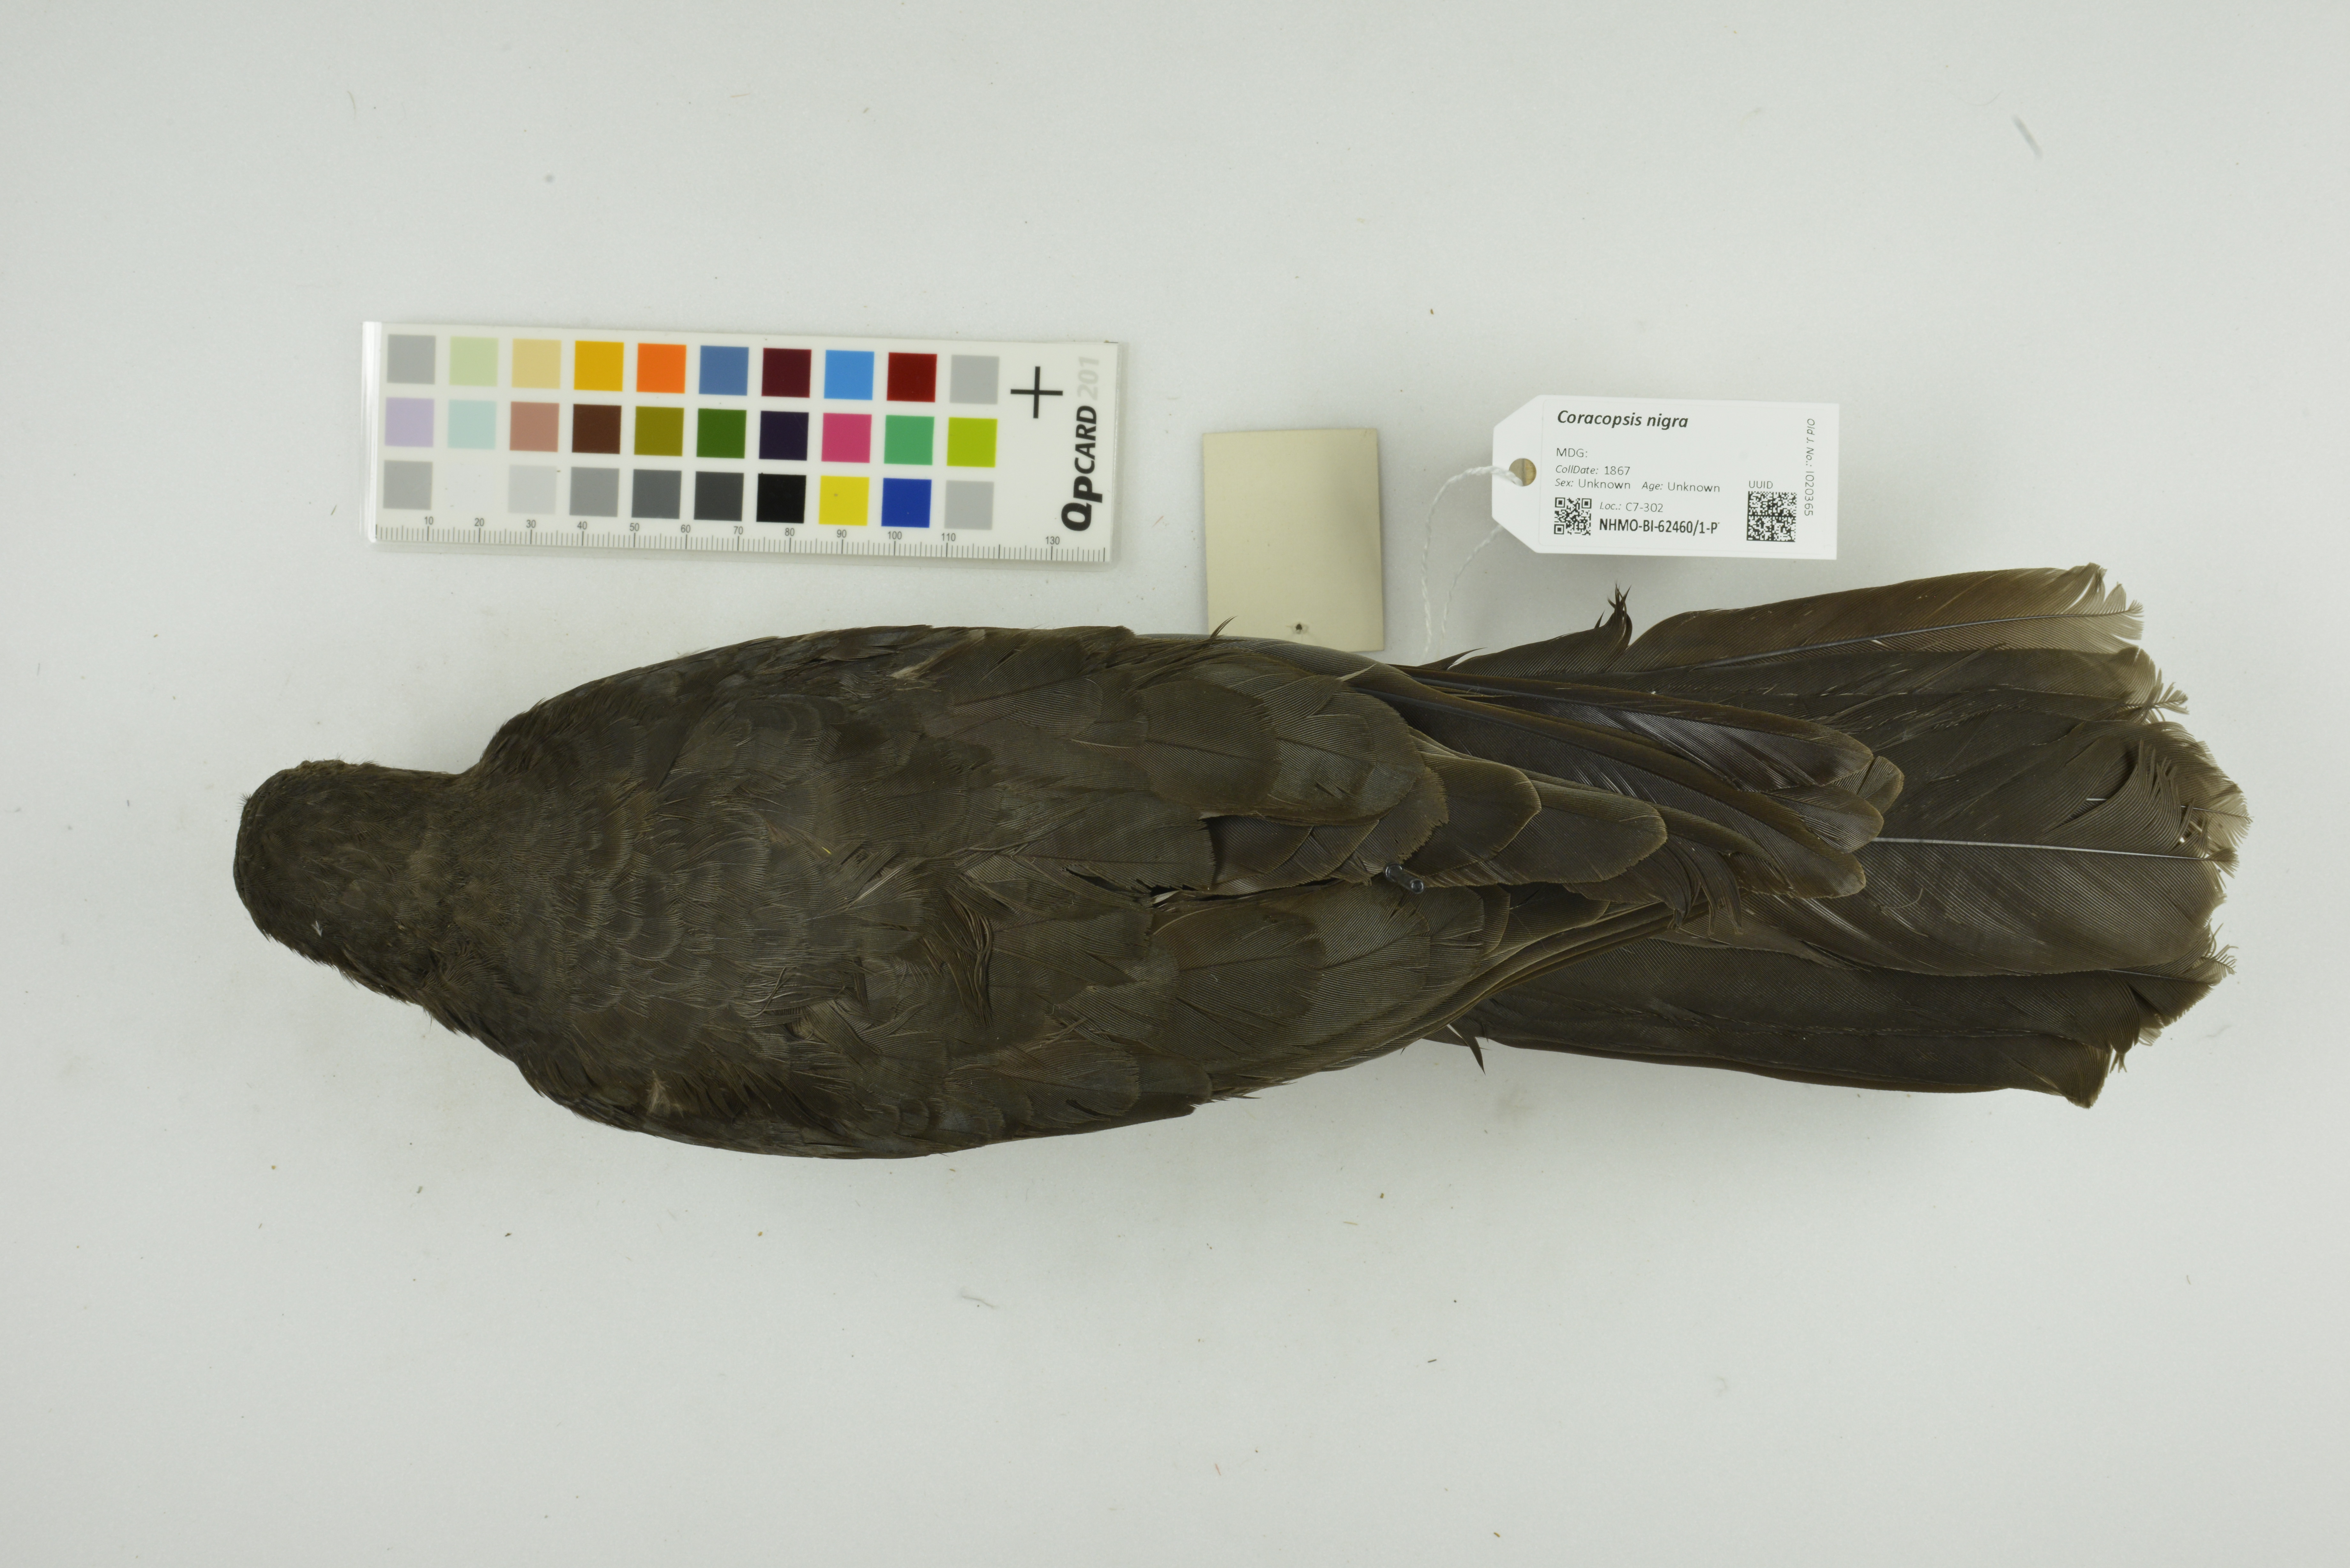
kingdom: Animalia
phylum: Chordata
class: Aves
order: Psittaciformes
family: Psittacidae
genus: Coracopsis
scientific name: Coracopsis nigra
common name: Lesser vasa parrot
